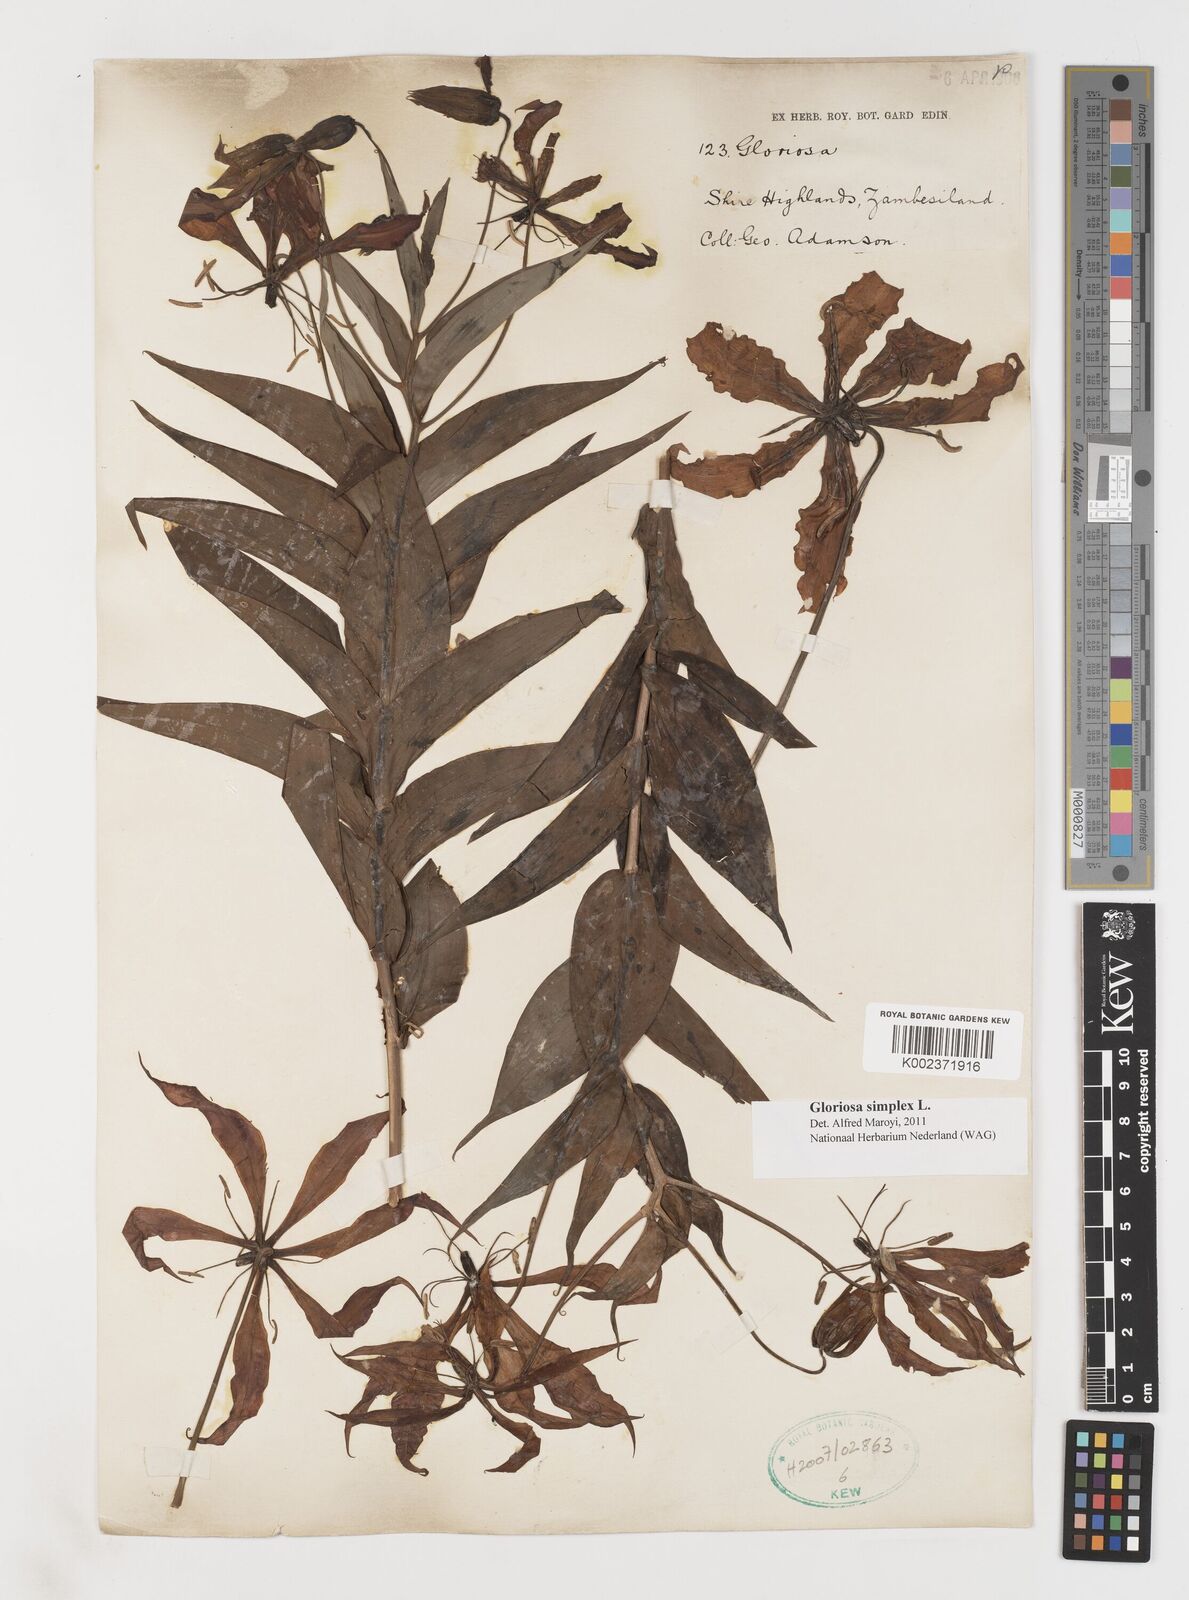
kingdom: Plantae
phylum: Tracheophyta
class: Liliopsida
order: Liliales
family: Colchicaceae
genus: Gloriosa
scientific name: Gloriosa simplex
